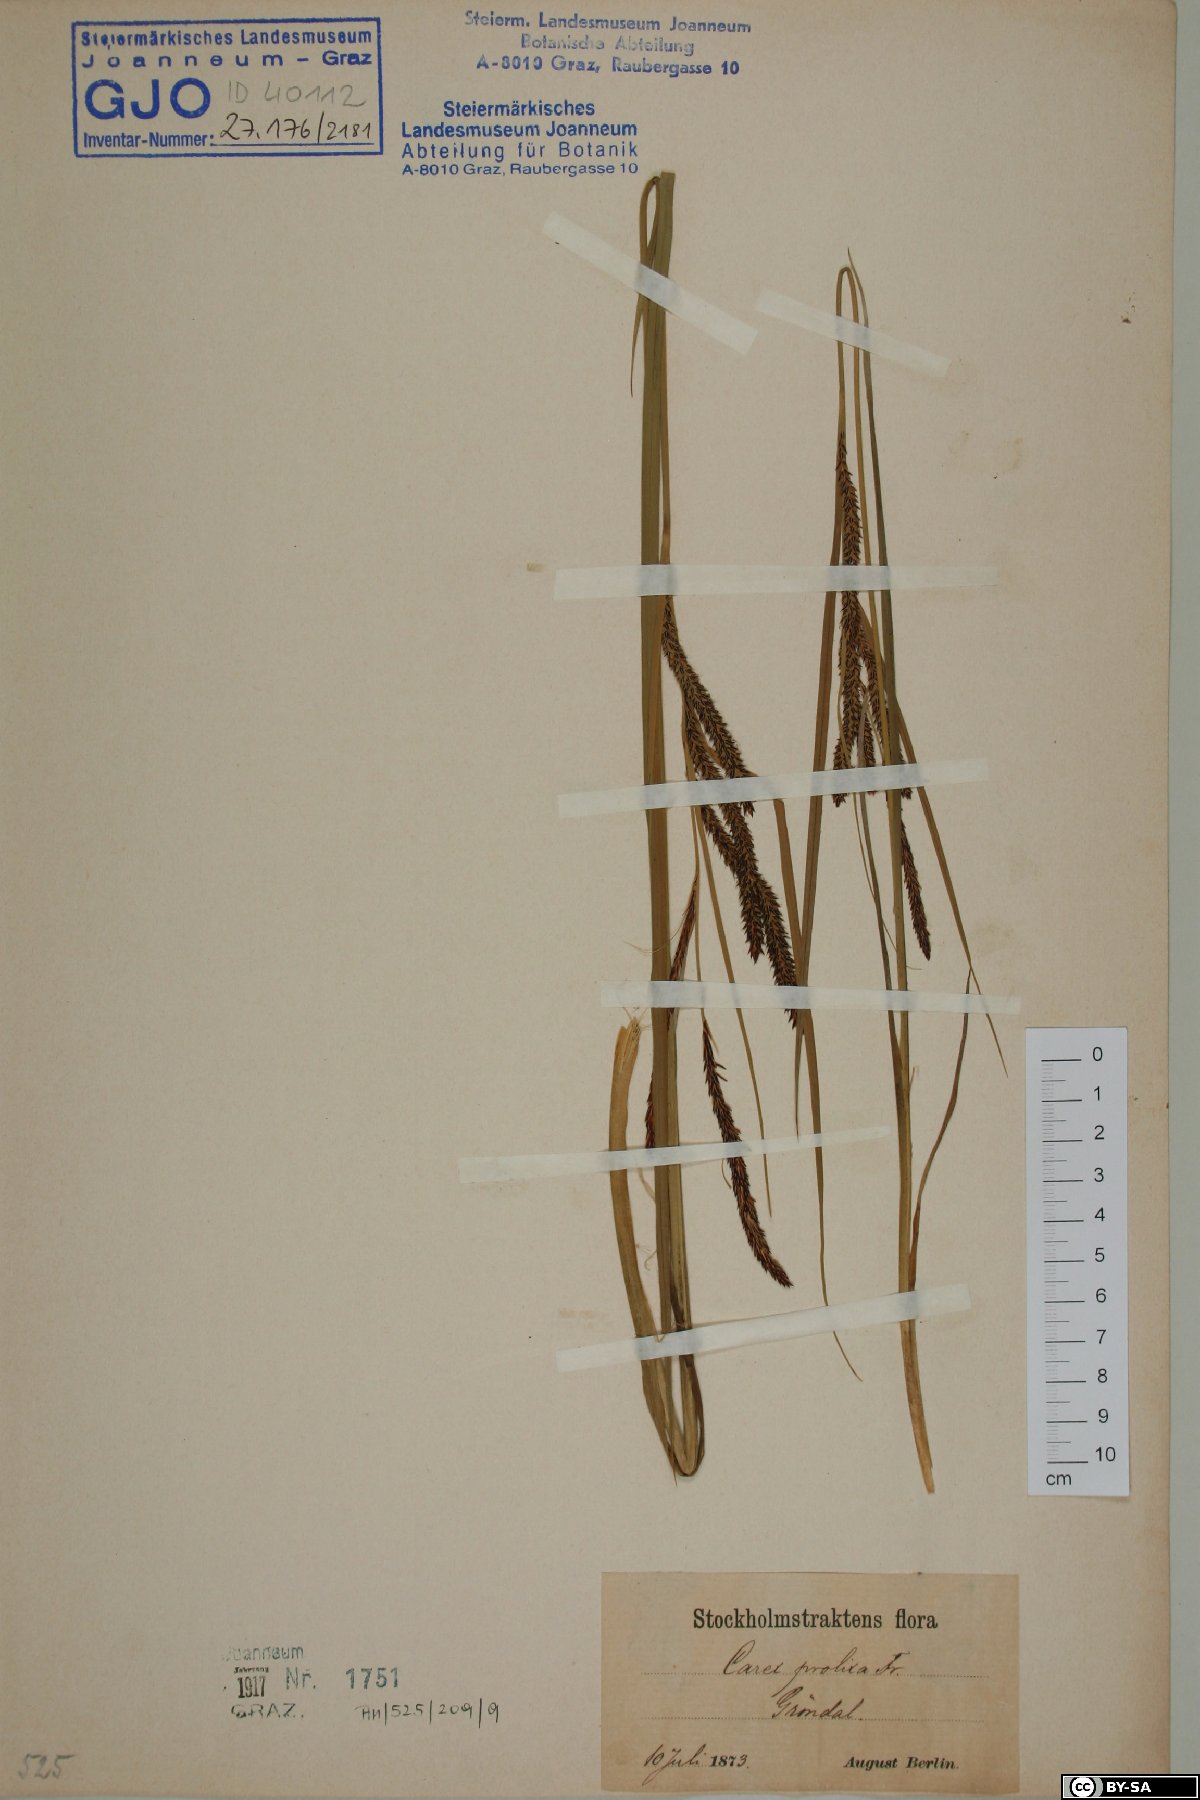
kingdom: Plantae
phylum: Tracheophyta
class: Liliopsida
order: Poales
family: Cyperaceae
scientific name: Cyperaceae
